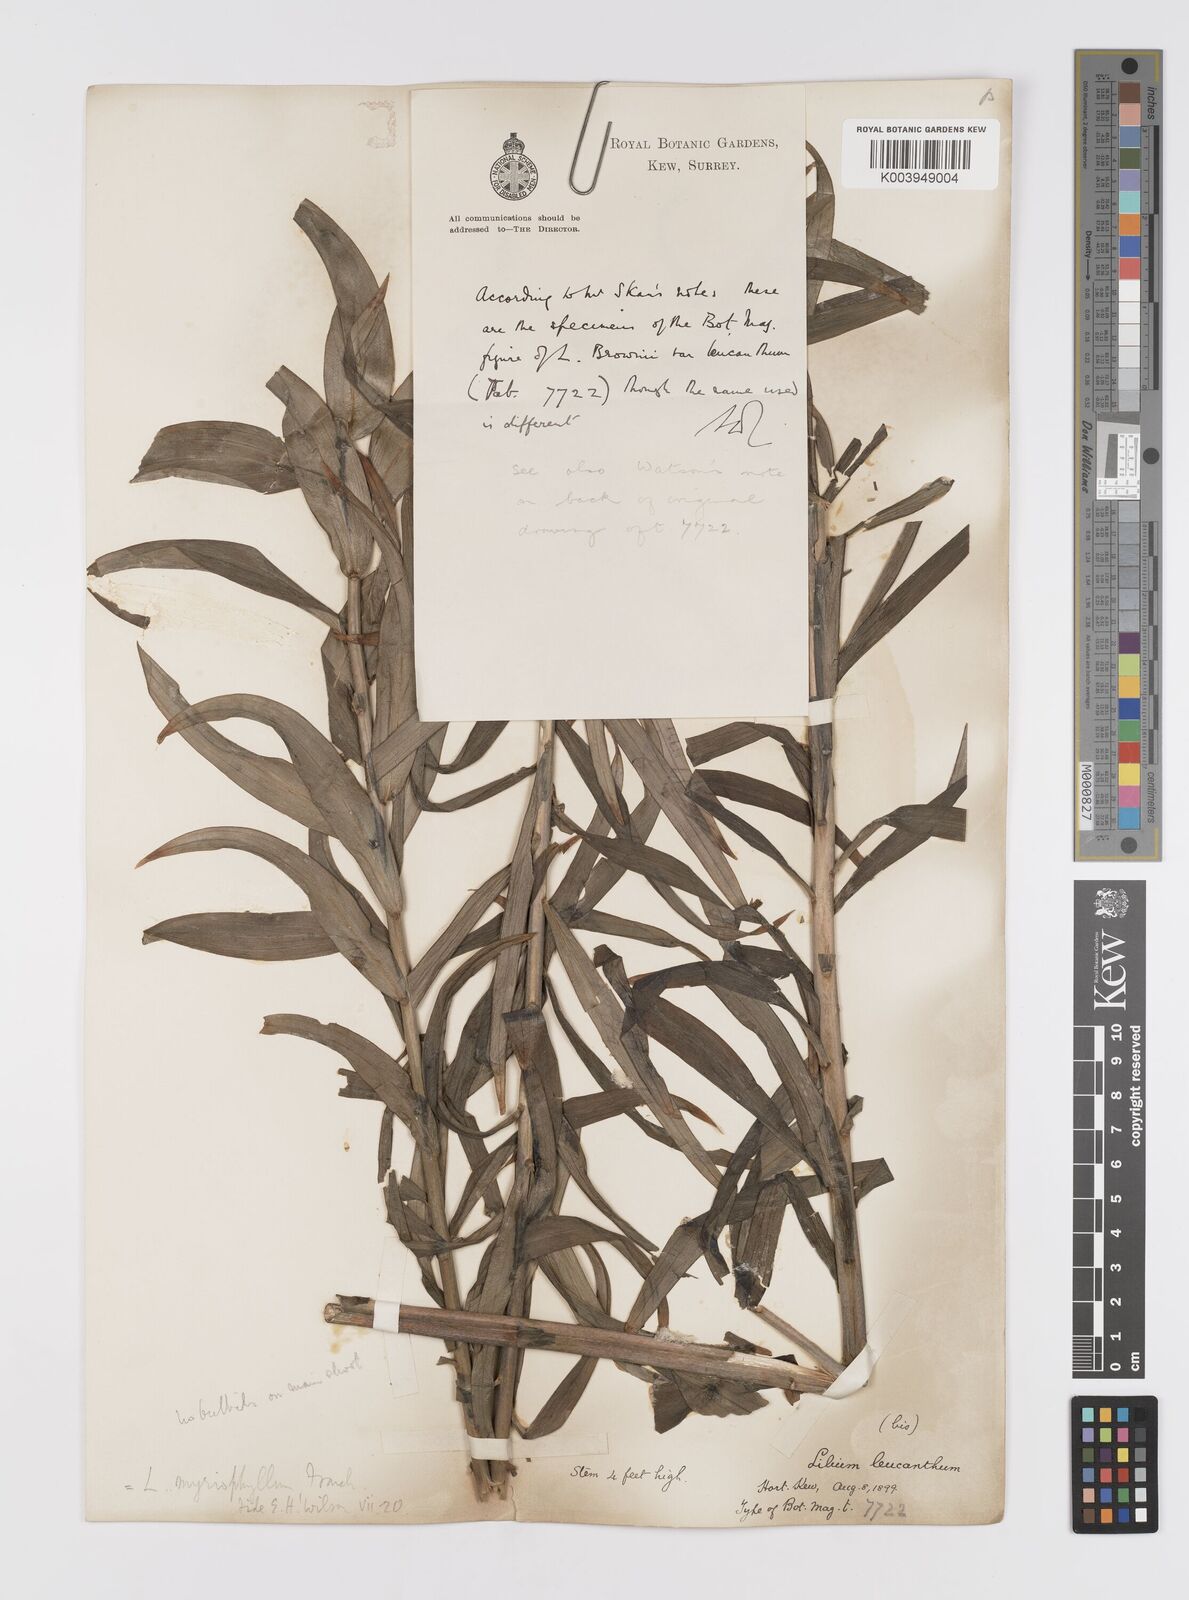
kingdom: Plantae
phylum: Tracheophyta
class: Liliopsida
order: Liliales
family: Liliaceae
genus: Lilium
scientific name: Lilium
